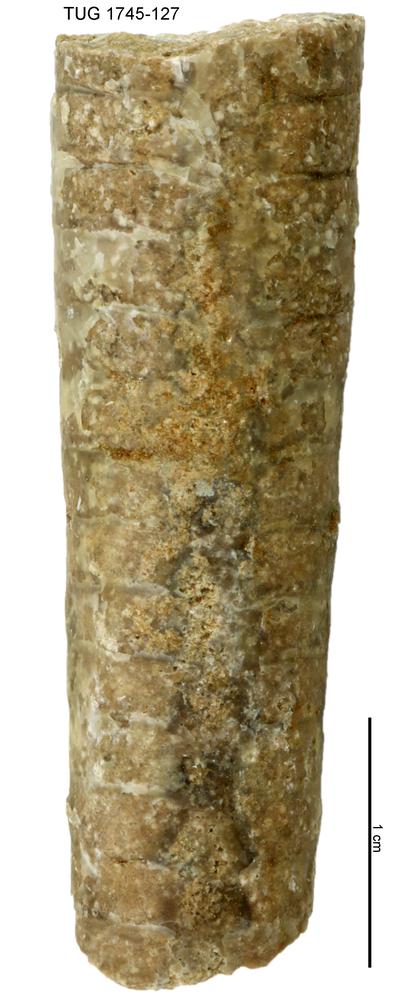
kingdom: Animalia
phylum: Mollusca
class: Cephalopoda
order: Orthocerida
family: Orthoceratidae
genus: Orthoceras
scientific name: Orthoceras
